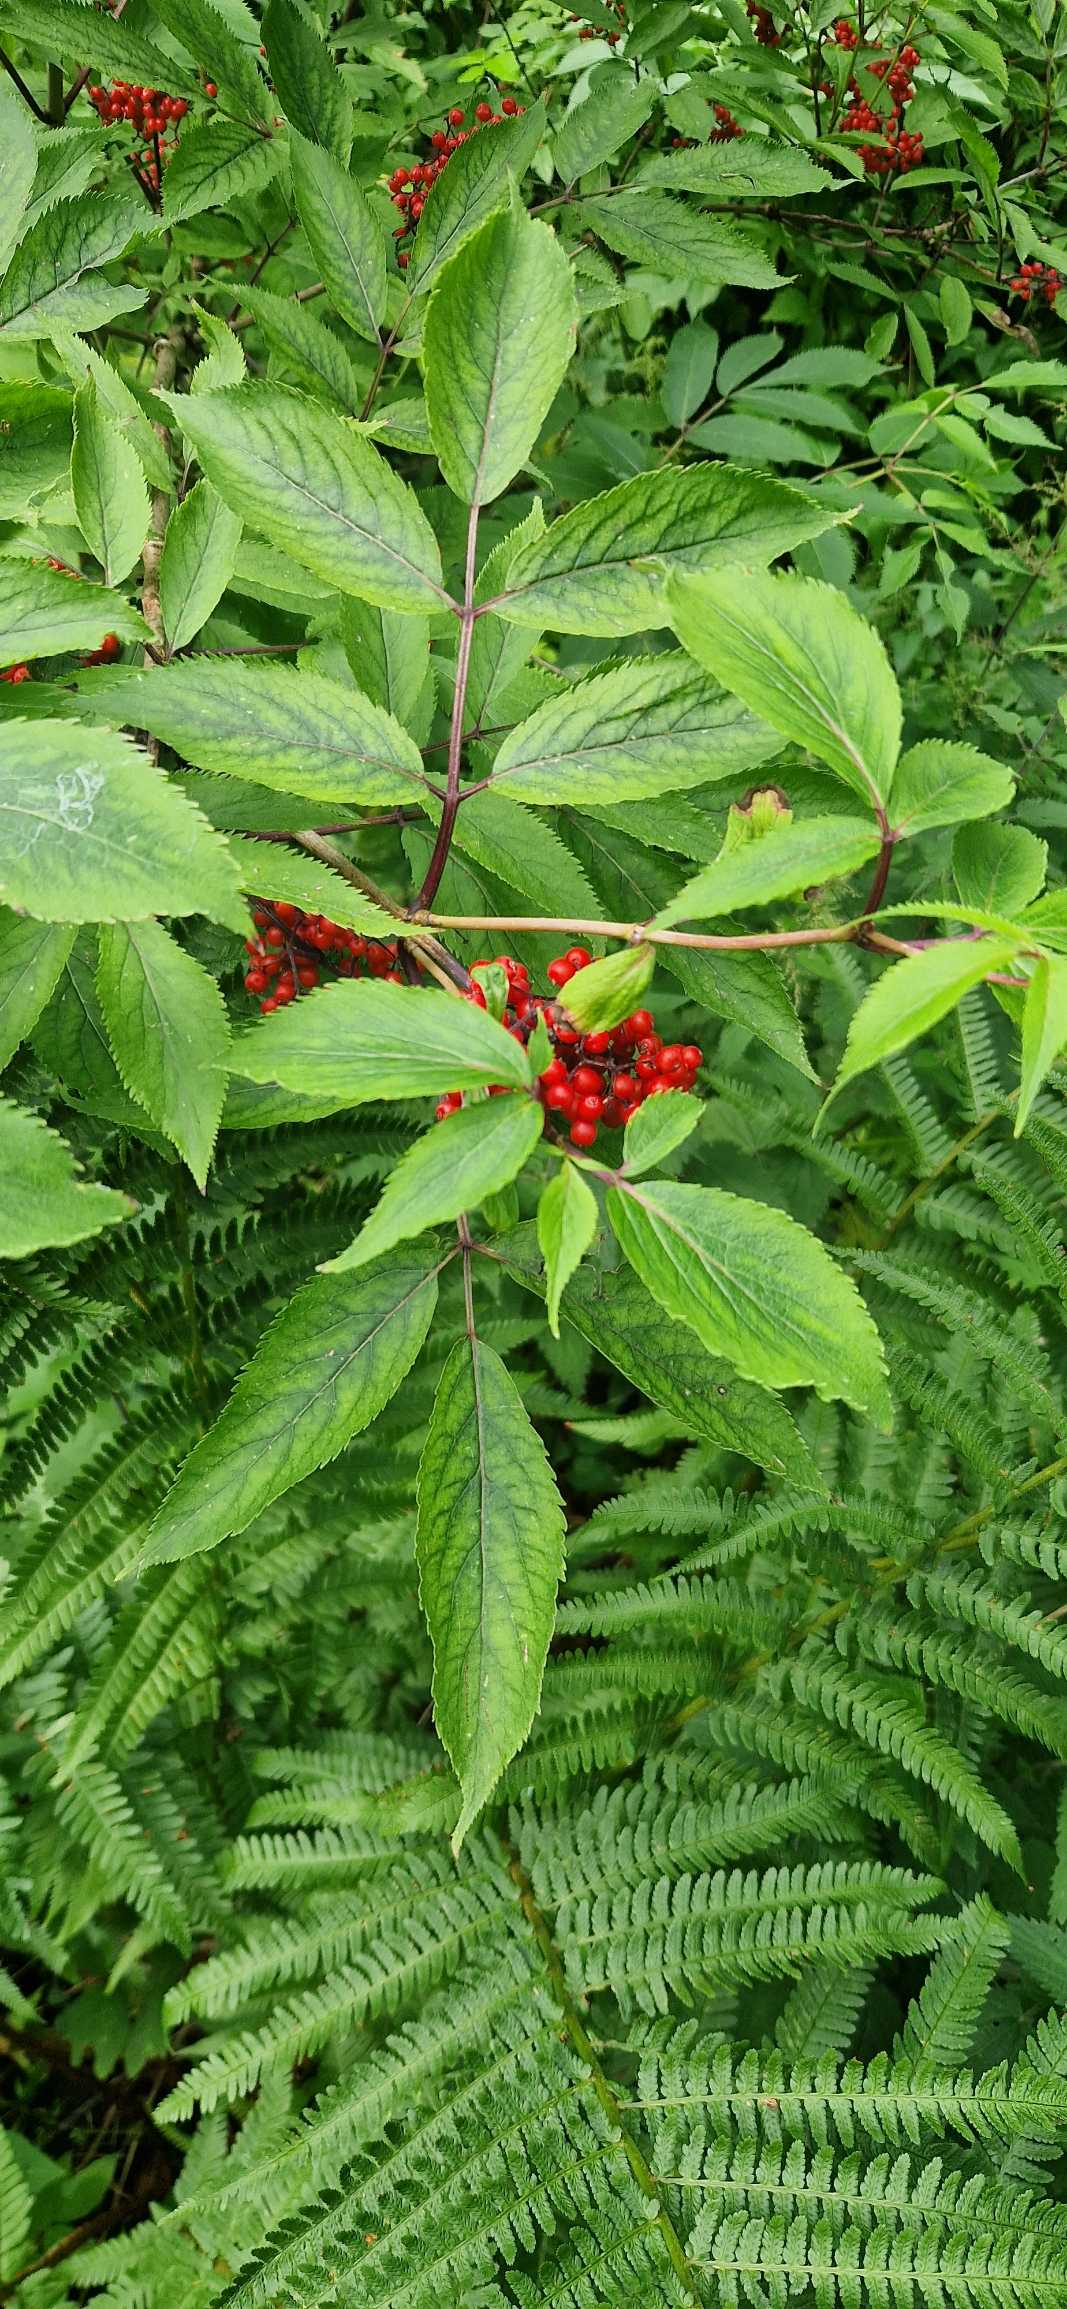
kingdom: Plantae
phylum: Tracheophyta
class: Magnoliopsida
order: Dipsacales
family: Viburnaceae
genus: Sambucus
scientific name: Sambucus racemosa
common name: Drue-hyld
